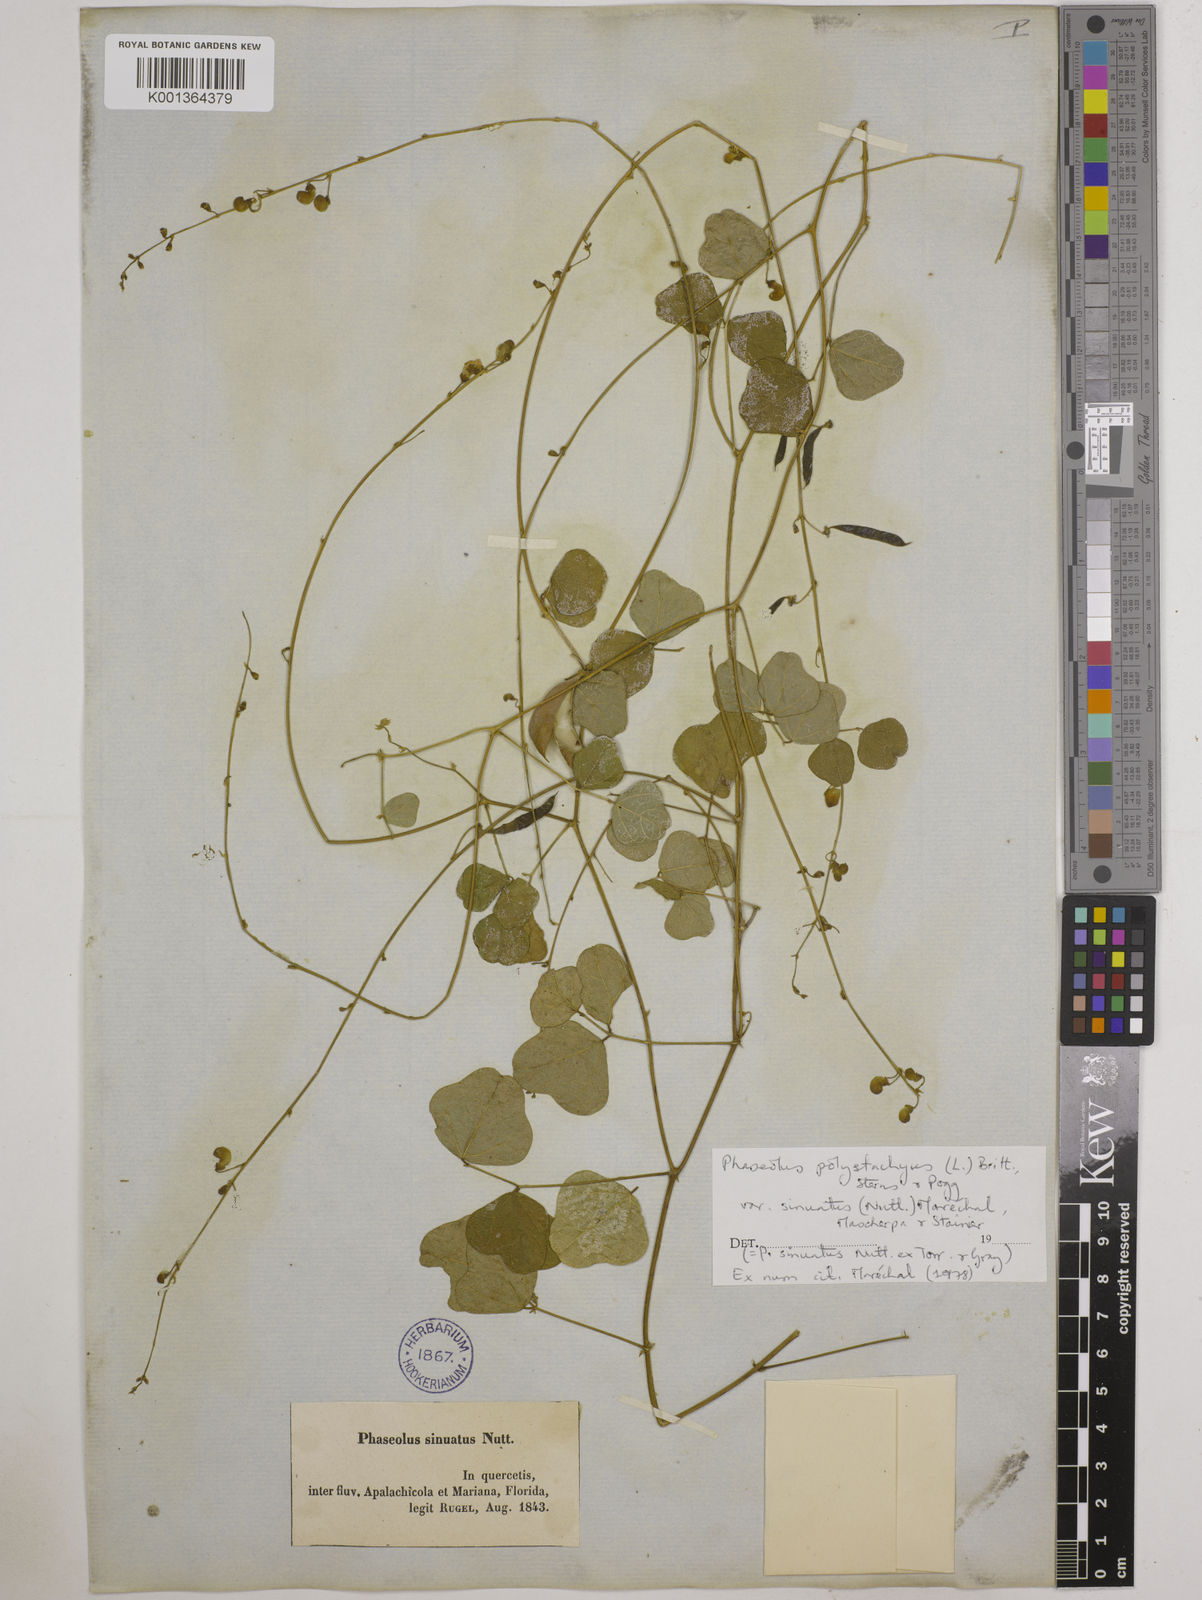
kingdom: Plantae
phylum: Tracheophyta
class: Magnoliopsida
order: Fabales
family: Fabaceae
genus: Phaseolus
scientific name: Phaseolus
